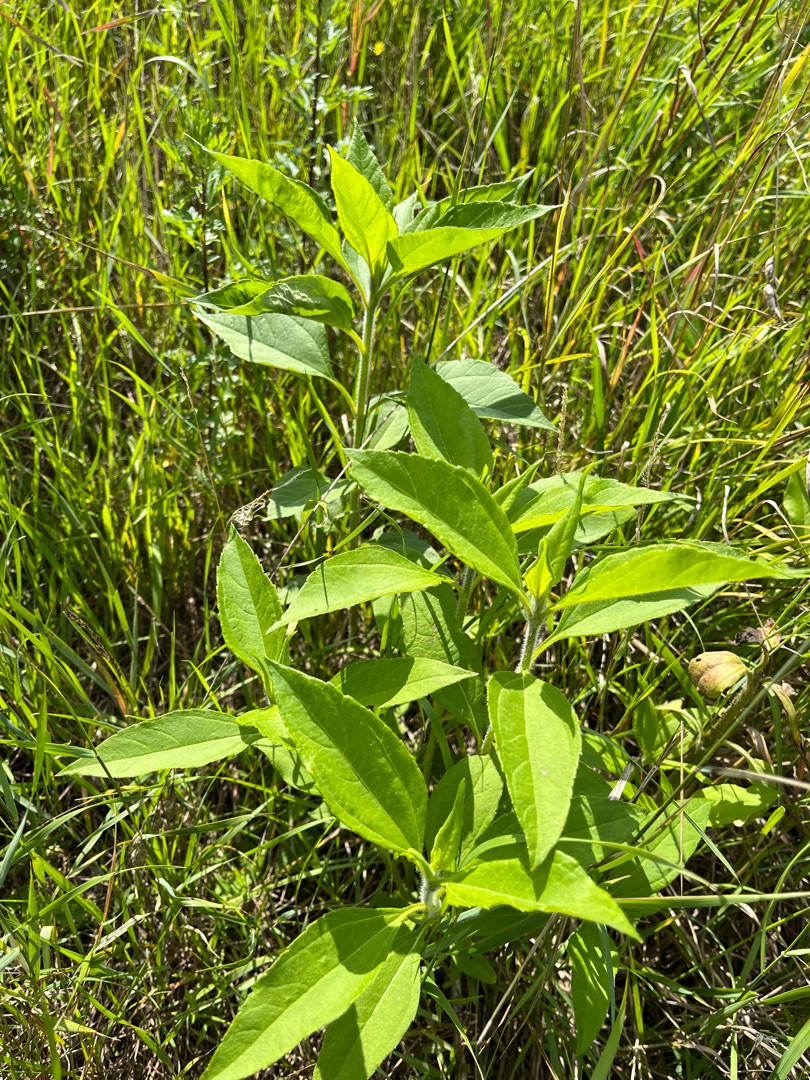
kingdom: Plantae
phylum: Tracheophyta
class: Magnoliopsida
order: Asterales
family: Asteraceae
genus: Helianthus
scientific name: Helianthus tuberosus
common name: Jordskok
